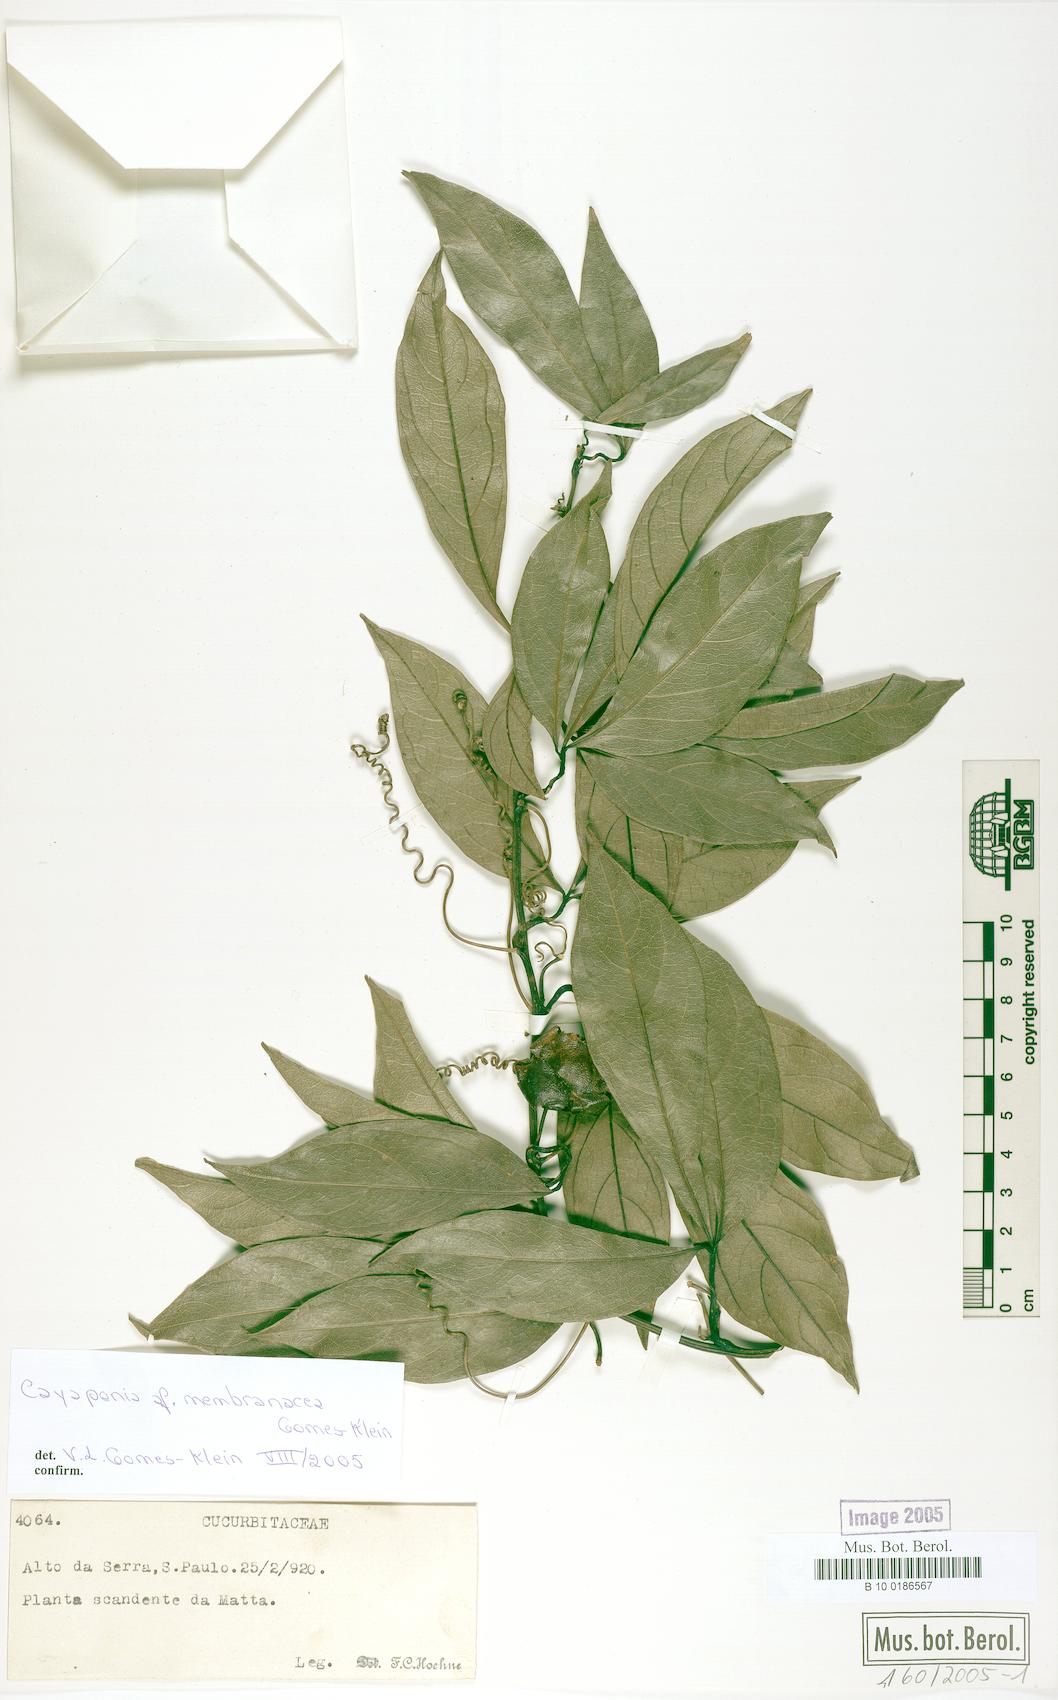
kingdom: Plantae
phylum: Tracheophyta
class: Magnoliopsida
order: Cucurbitales
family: Cucurbitaceae
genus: Cayaponia
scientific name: Cayaponia membranacea
